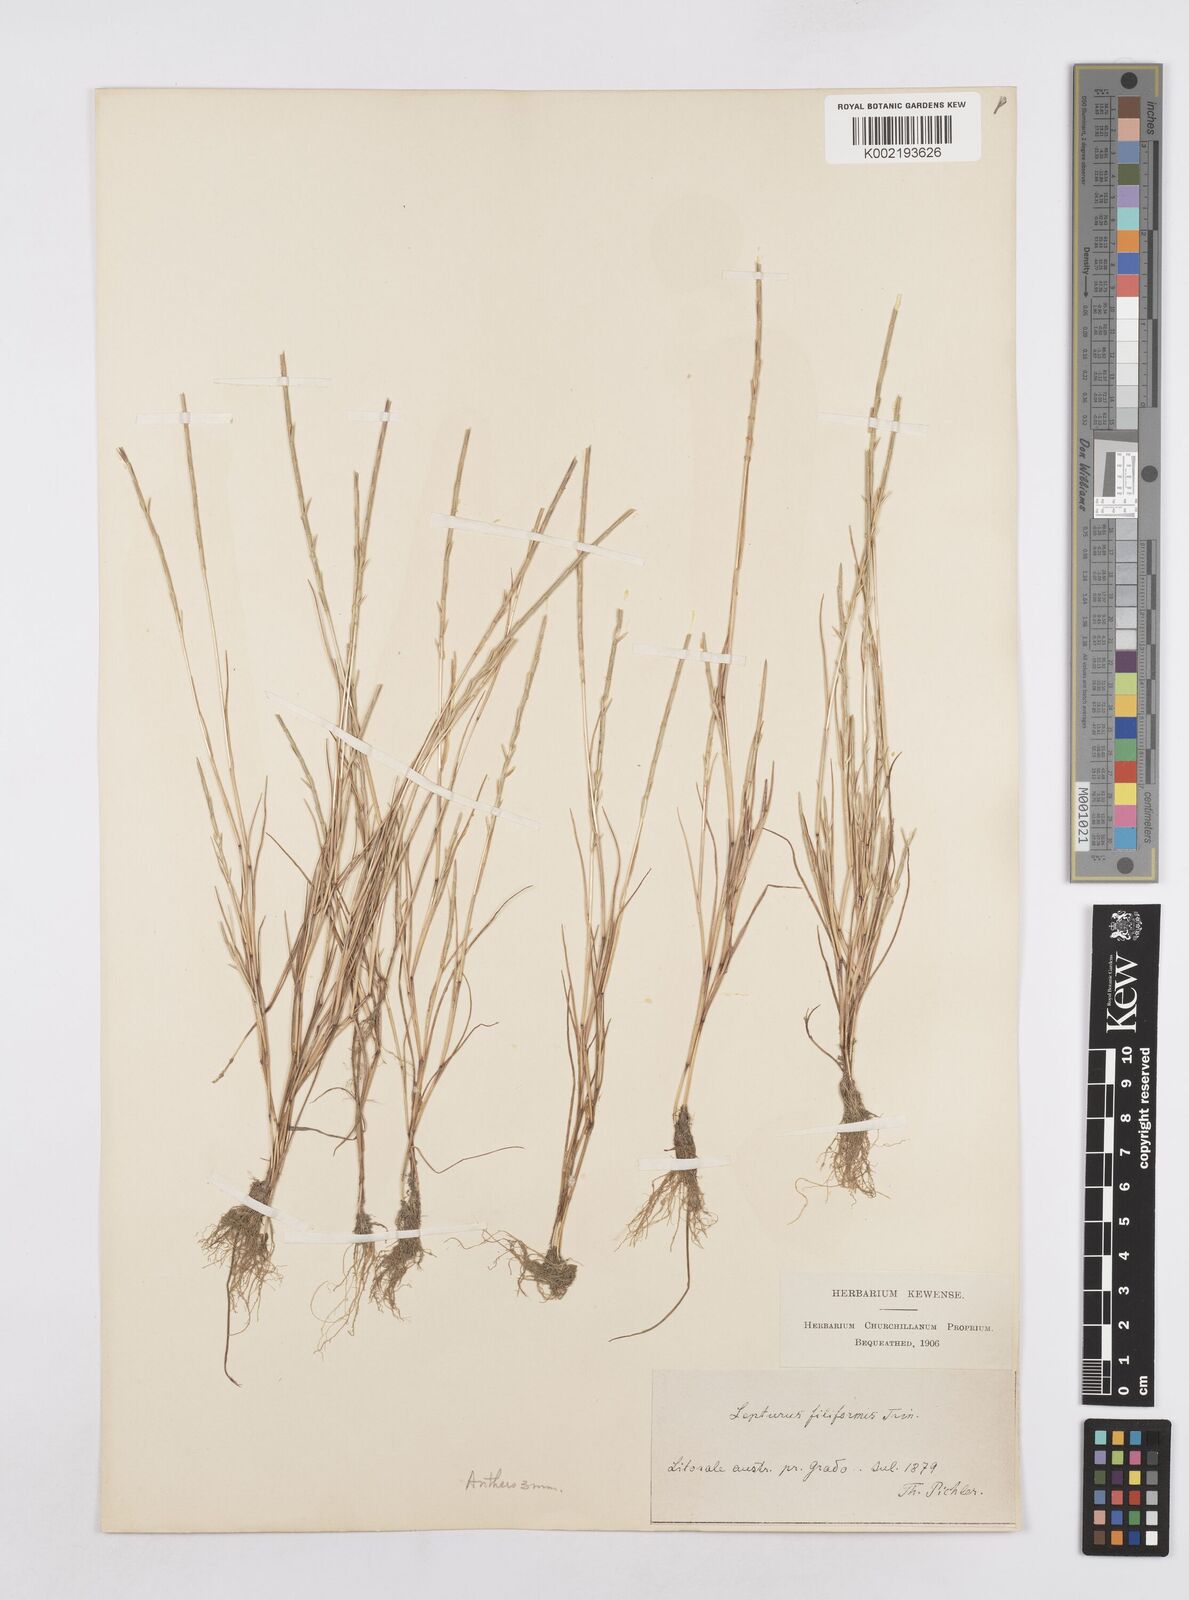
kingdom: Plantae
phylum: Tracheophyta
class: Liliopsida
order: Poales
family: Poaceae
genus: Parapholis
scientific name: Parapholis filiformis
